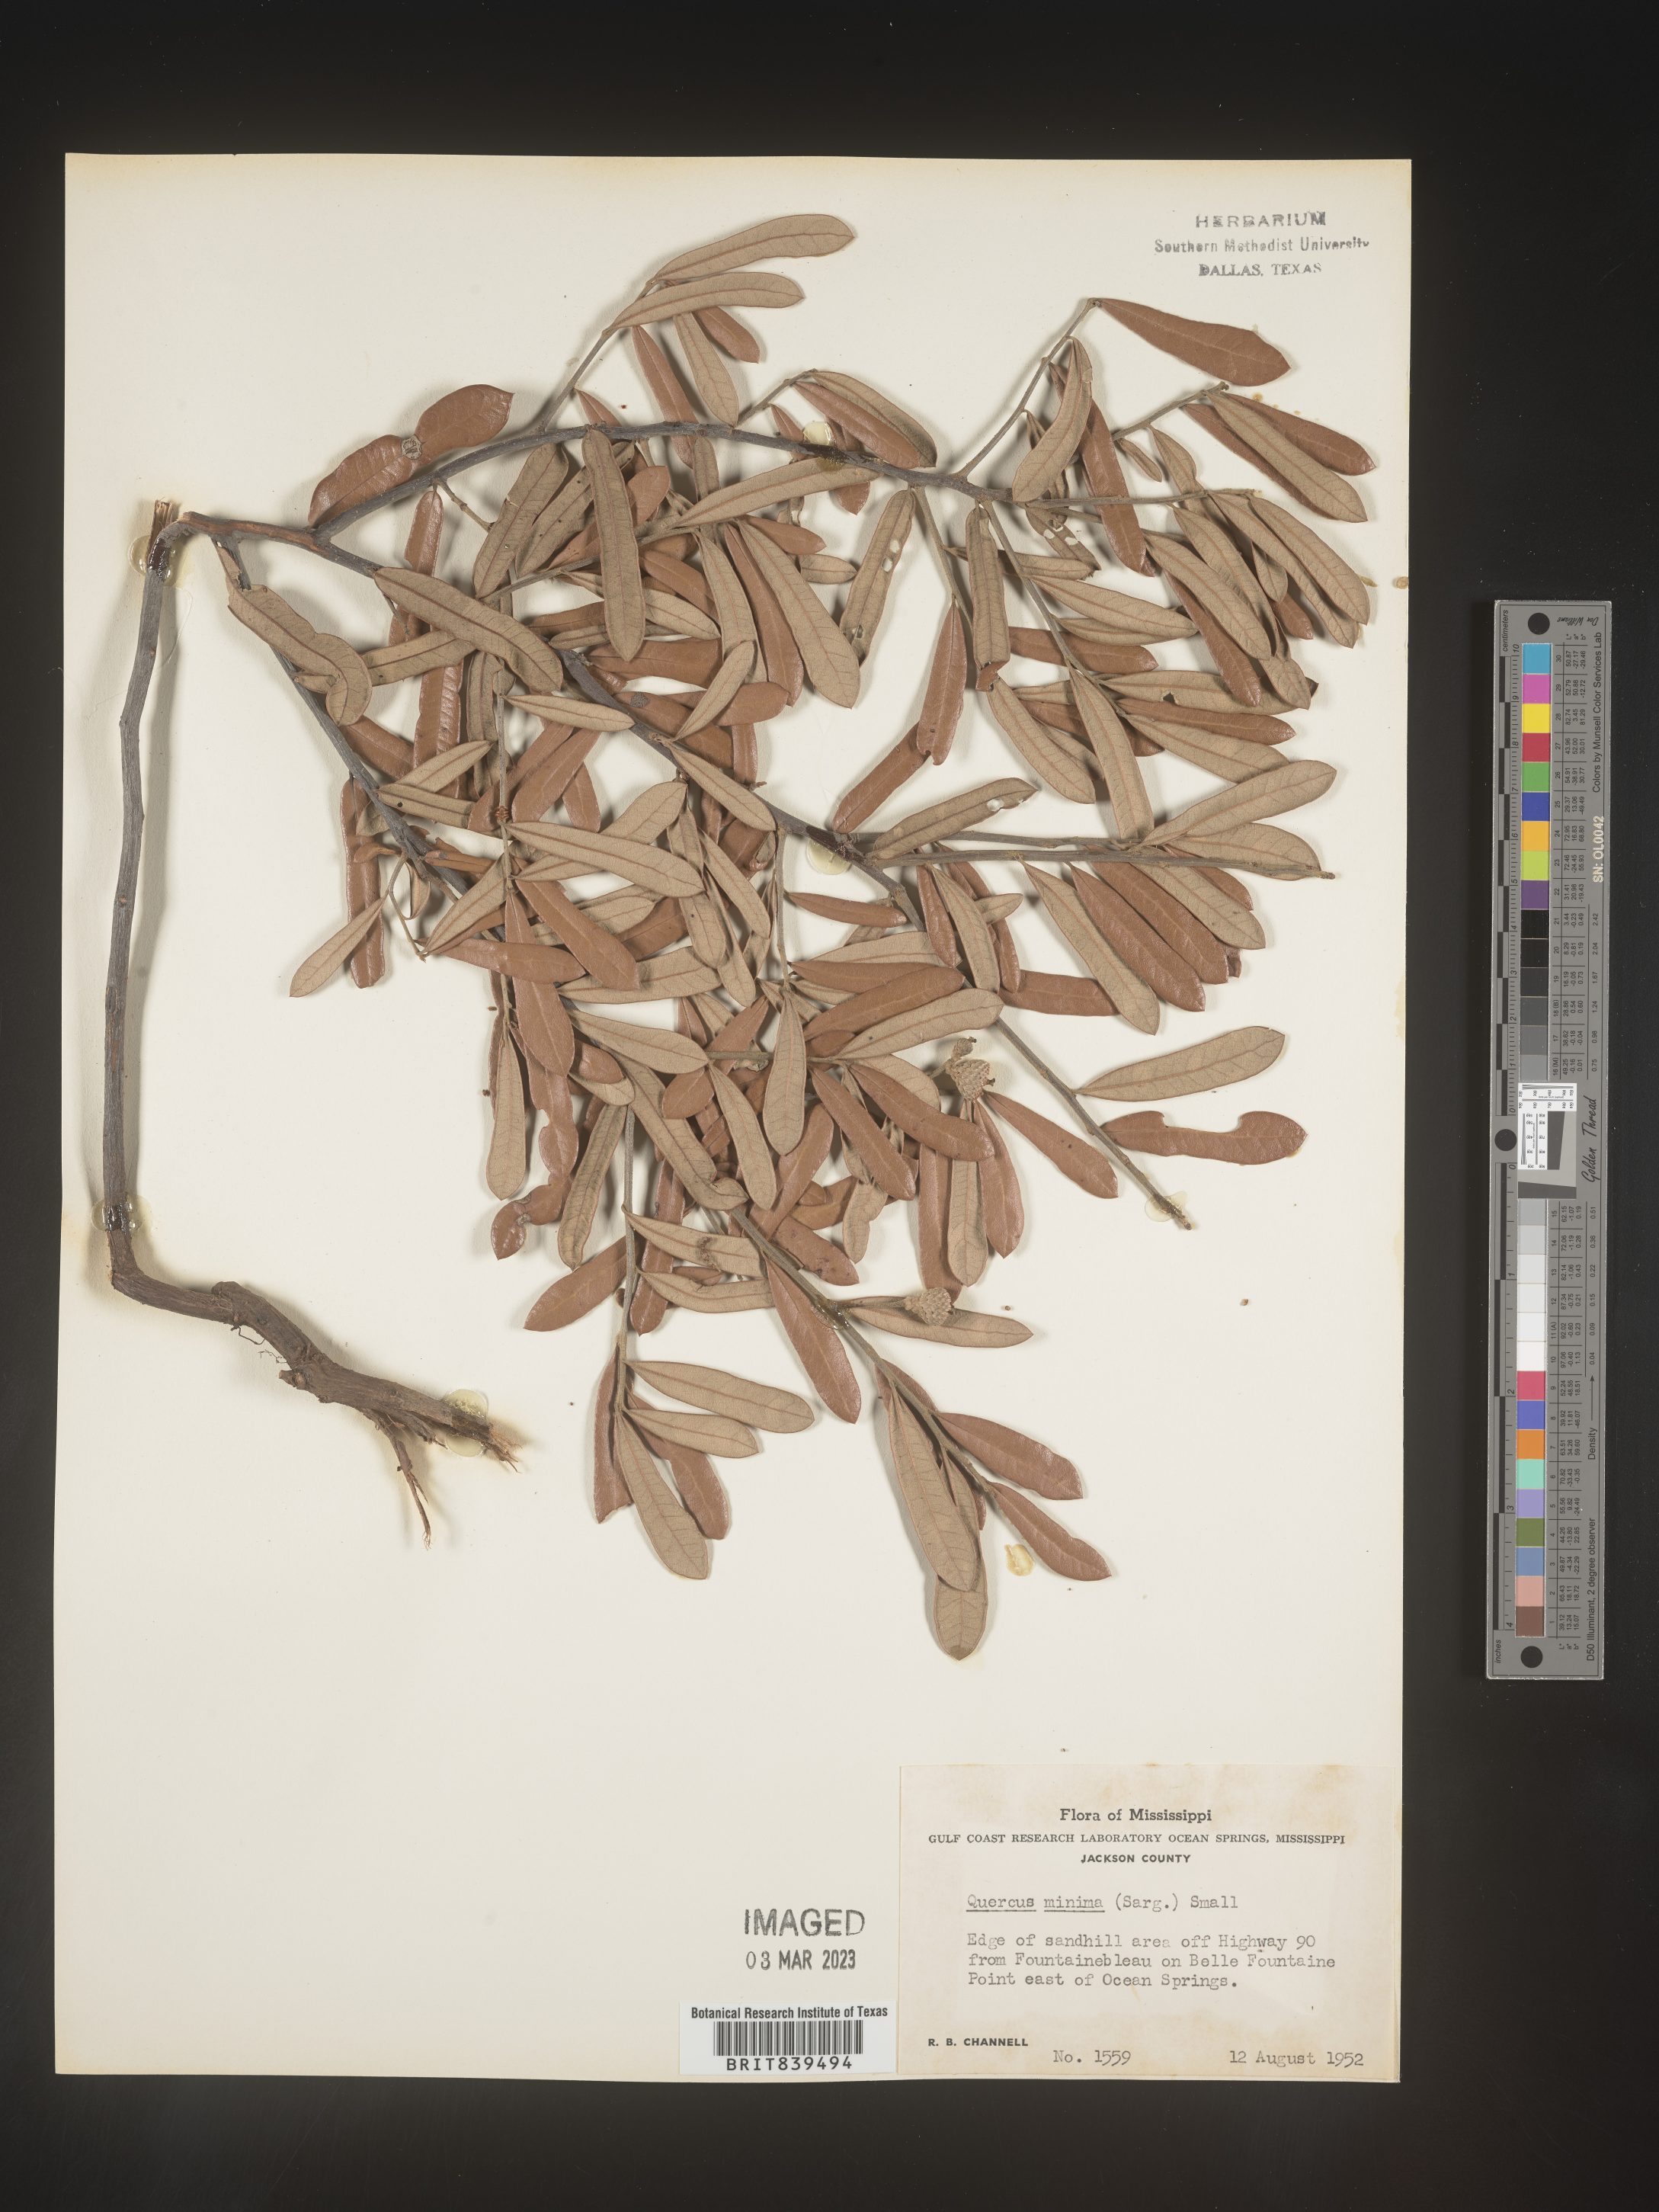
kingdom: Plantae
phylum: Tracheophyta
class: Magnoliopsida
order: Fagales
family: Fagaceae
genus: Quercus
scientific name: Quercus minima
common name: Dwarf live oak
